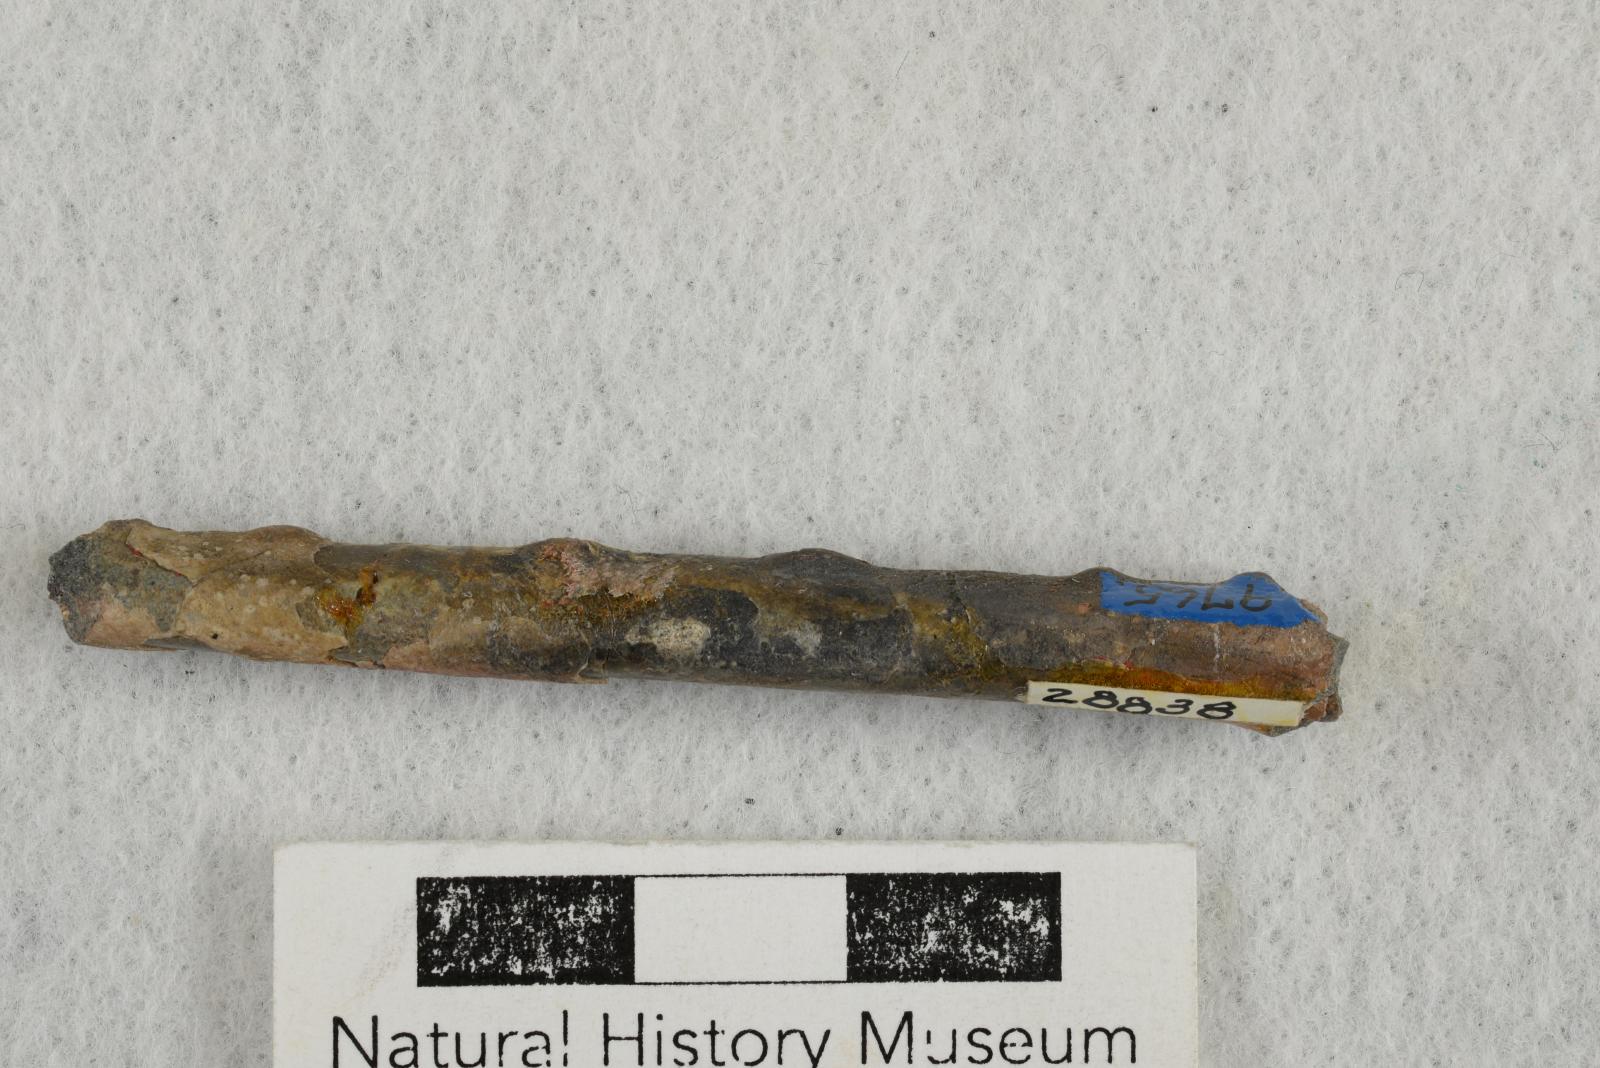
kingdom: Animalia
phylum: Mollusca
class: Cephalopoda
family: Baculitidae
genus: Baculites
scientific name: Baculites capensis
